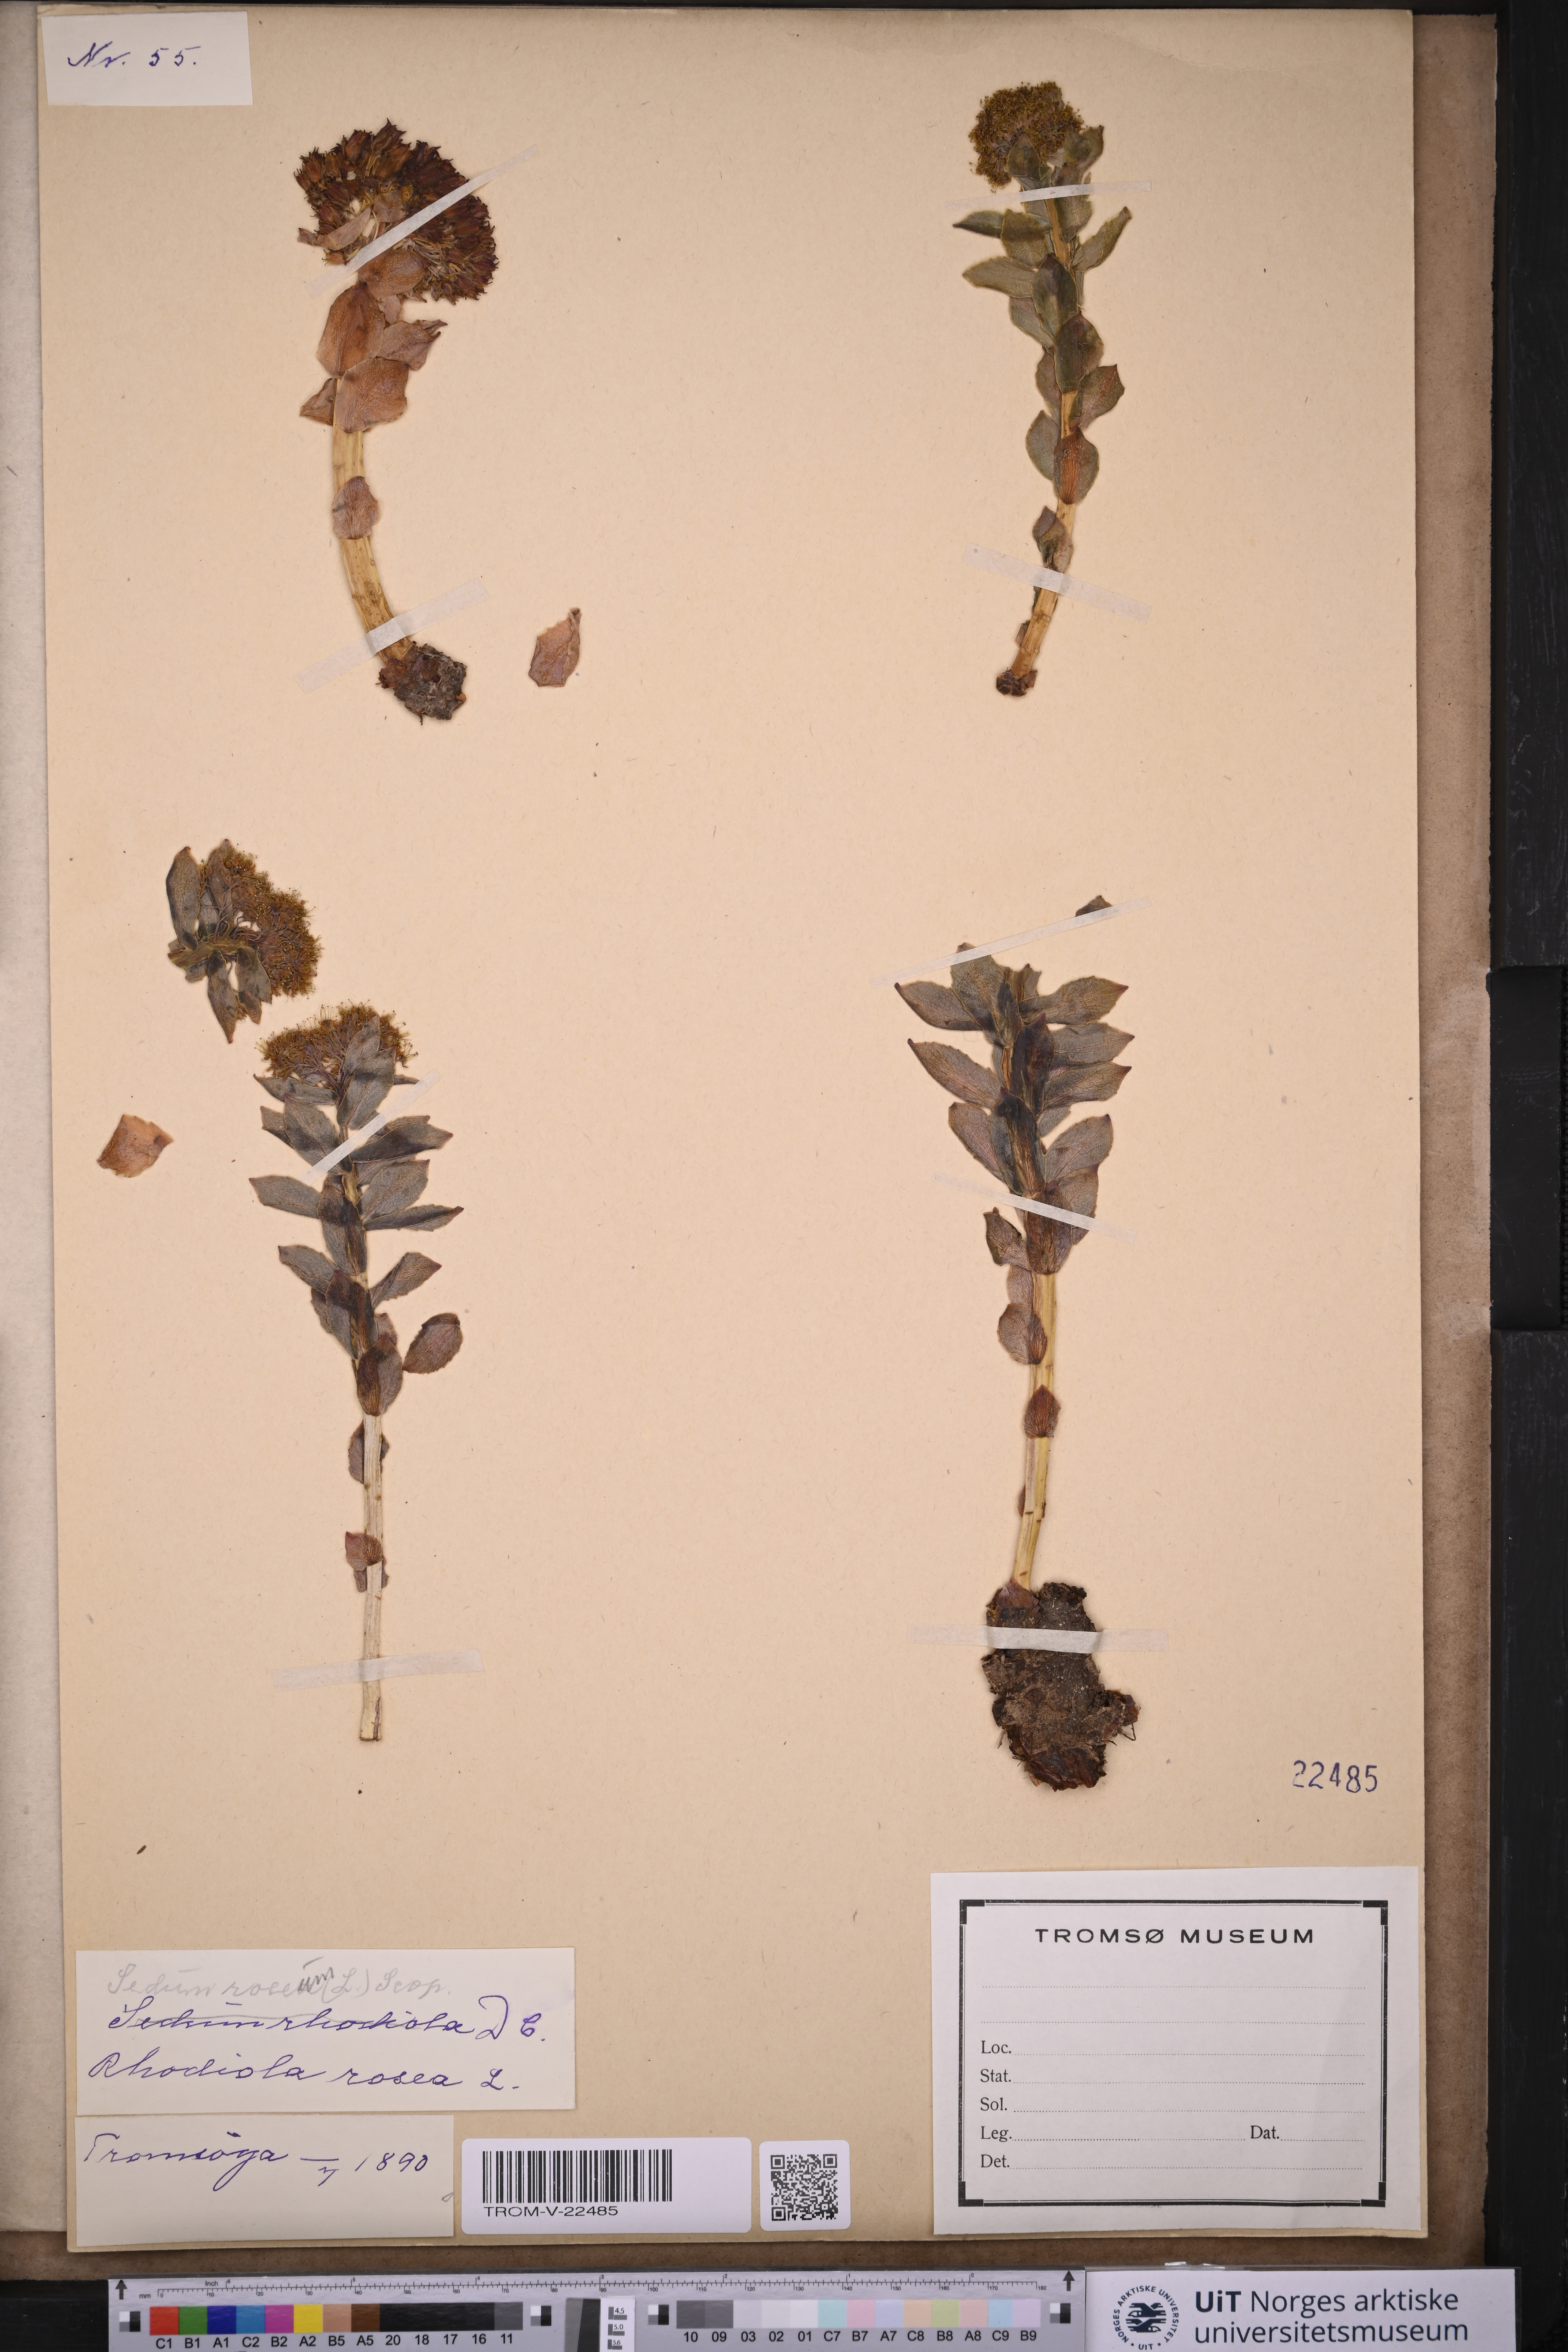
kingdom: Plantae
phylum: Tracheophyta
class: Magnoliopsida
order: Saxifragales
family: Crassulaceae
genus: Rhodiola
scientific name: Rhodiola rosea
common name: Roseroot
